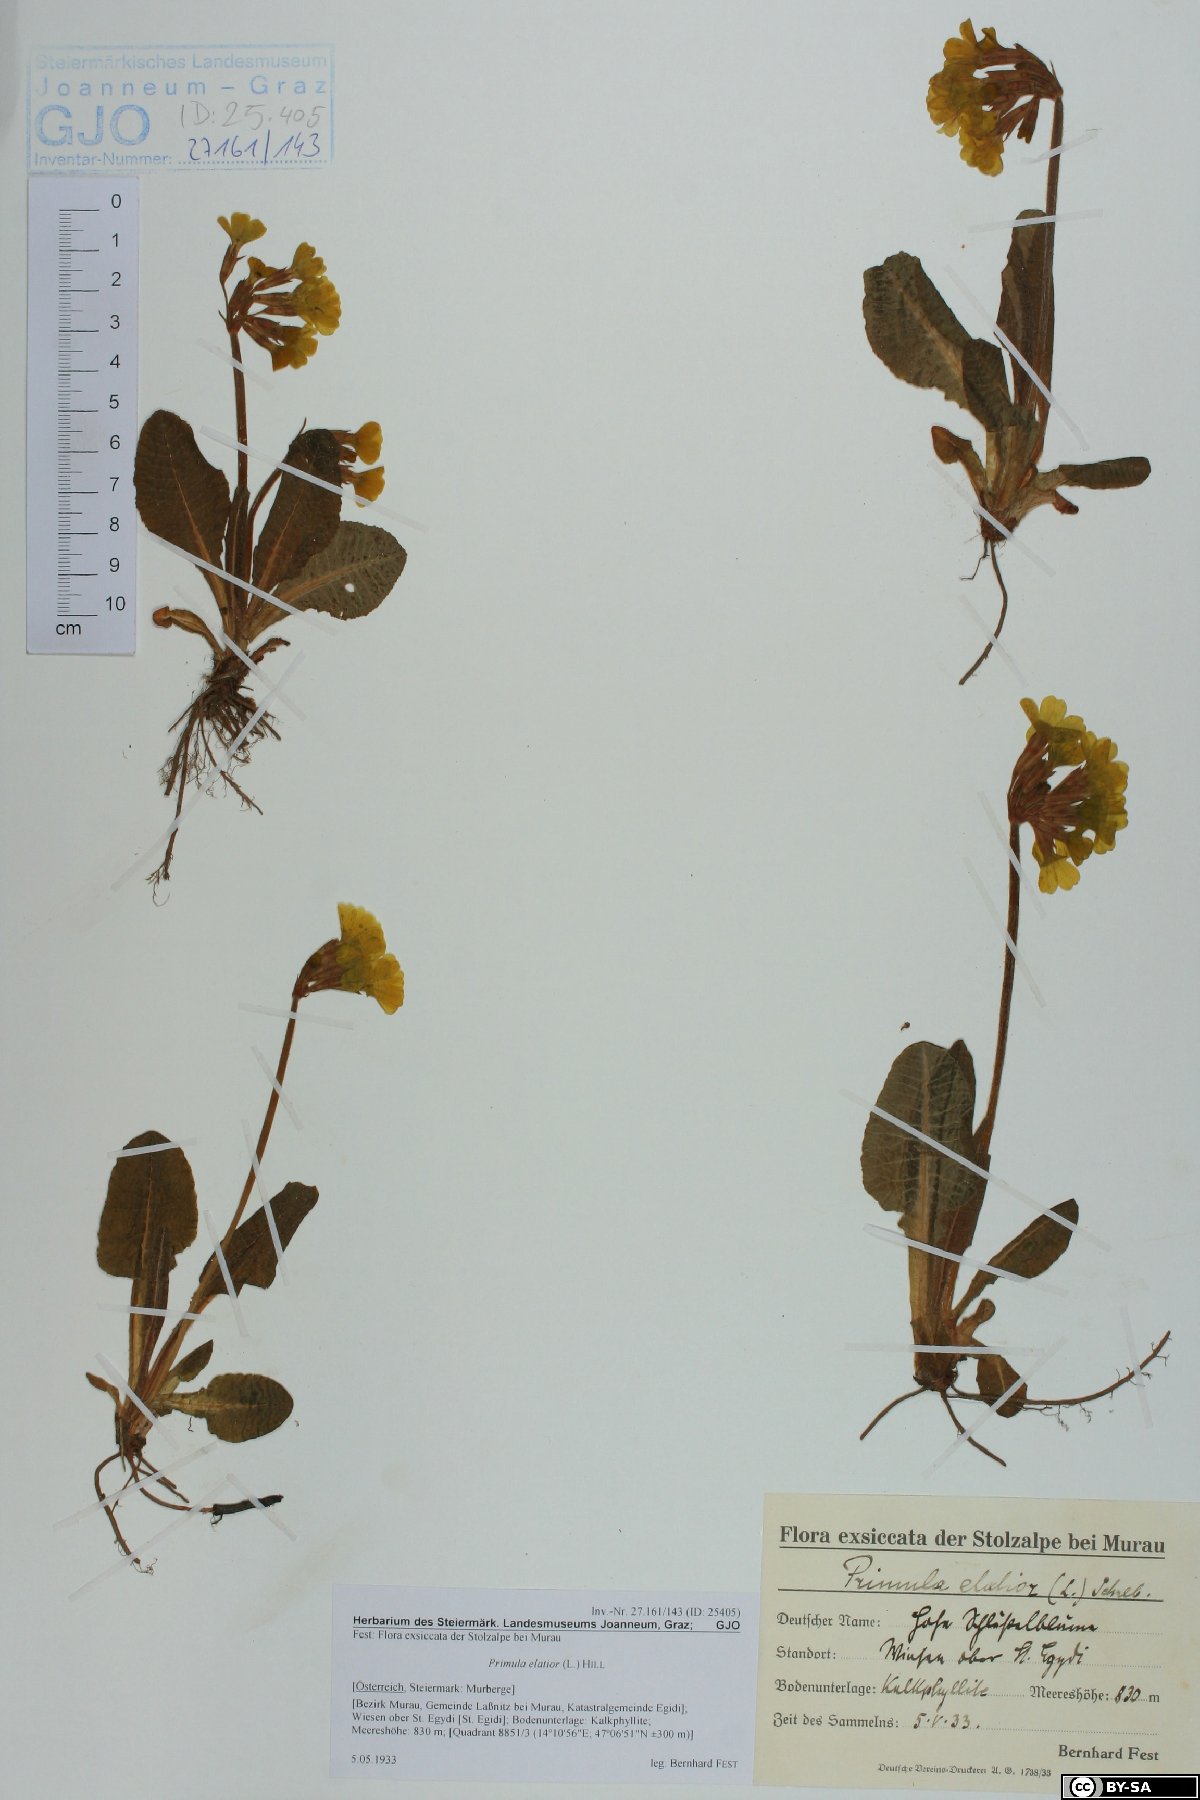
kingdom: Plantae
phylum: Tracheophyta
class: Magnoliopsida
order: Ericales
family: Primulaceae
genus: Primula
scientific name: Primula elatior
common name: Oxlip
